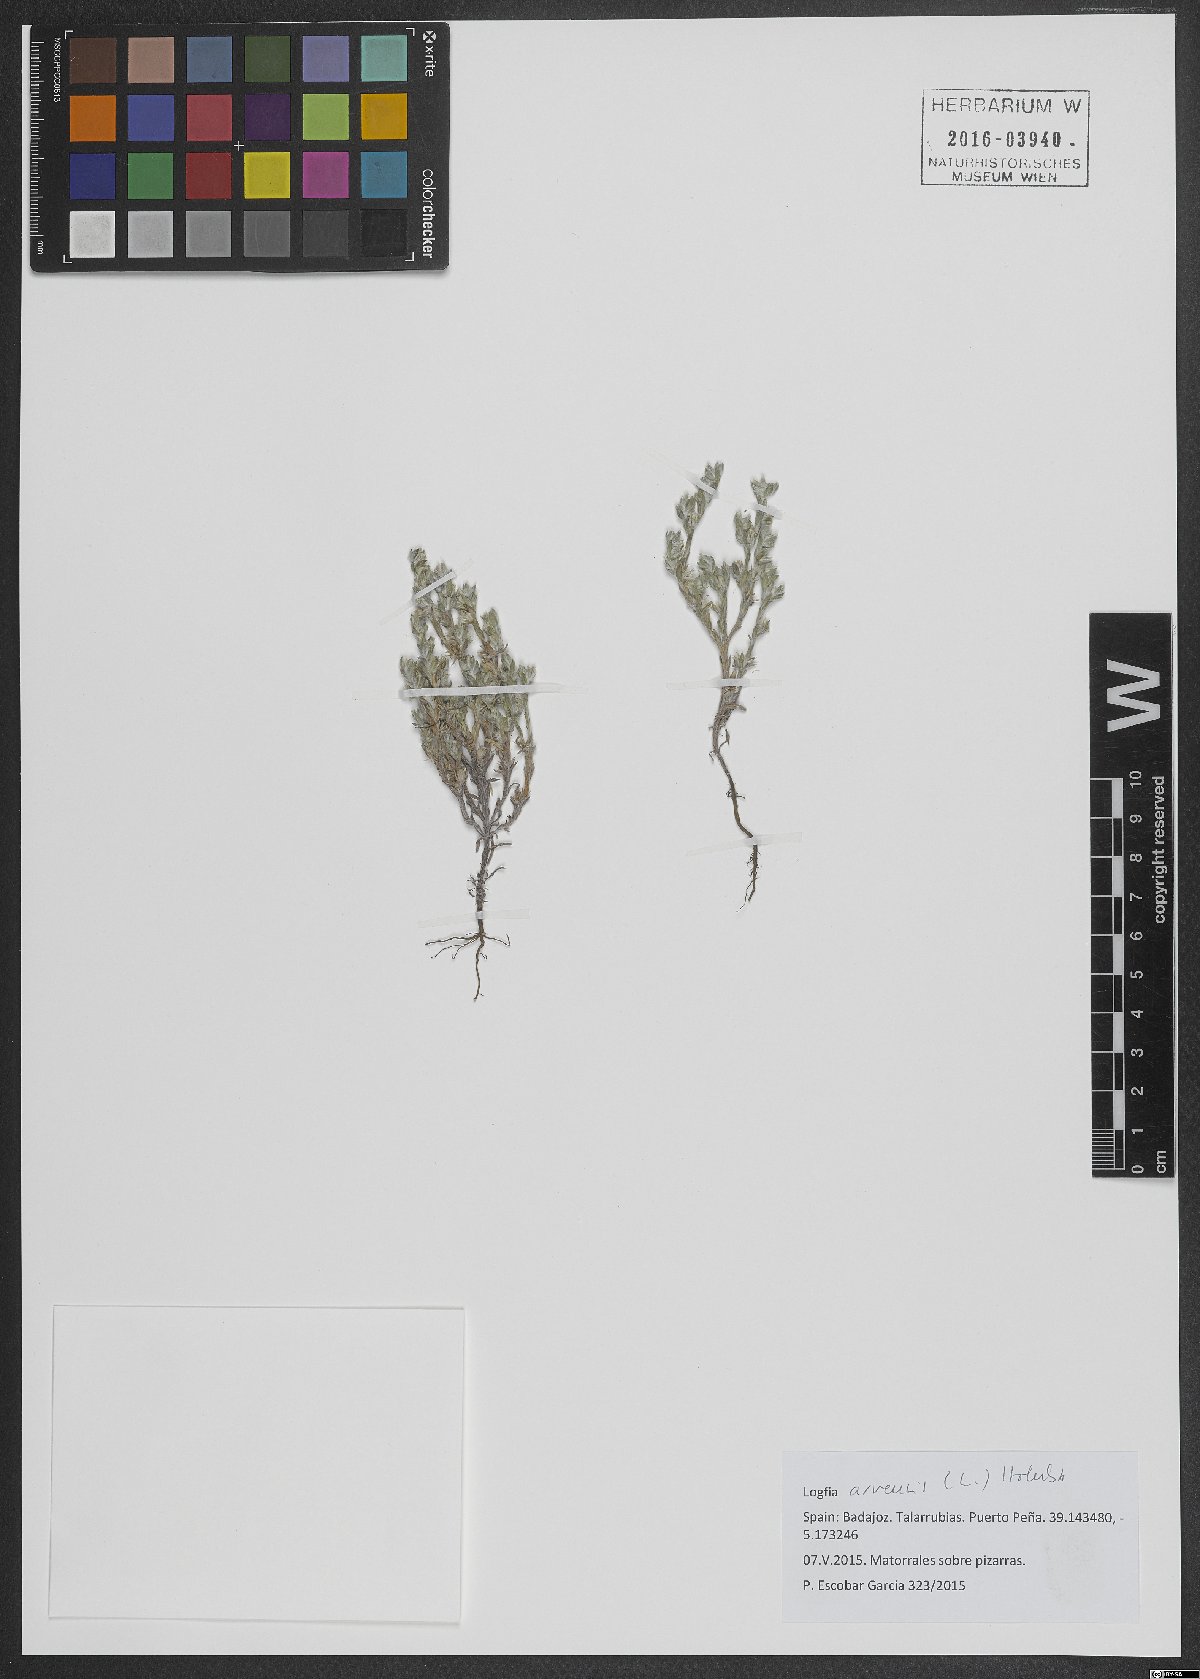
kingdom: Plantae
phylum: Tracheophyta
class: Magnoliopsida
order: Asterales
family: Asteraceae
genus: Filago
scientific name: Filago arvensis
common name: Field cudweed
